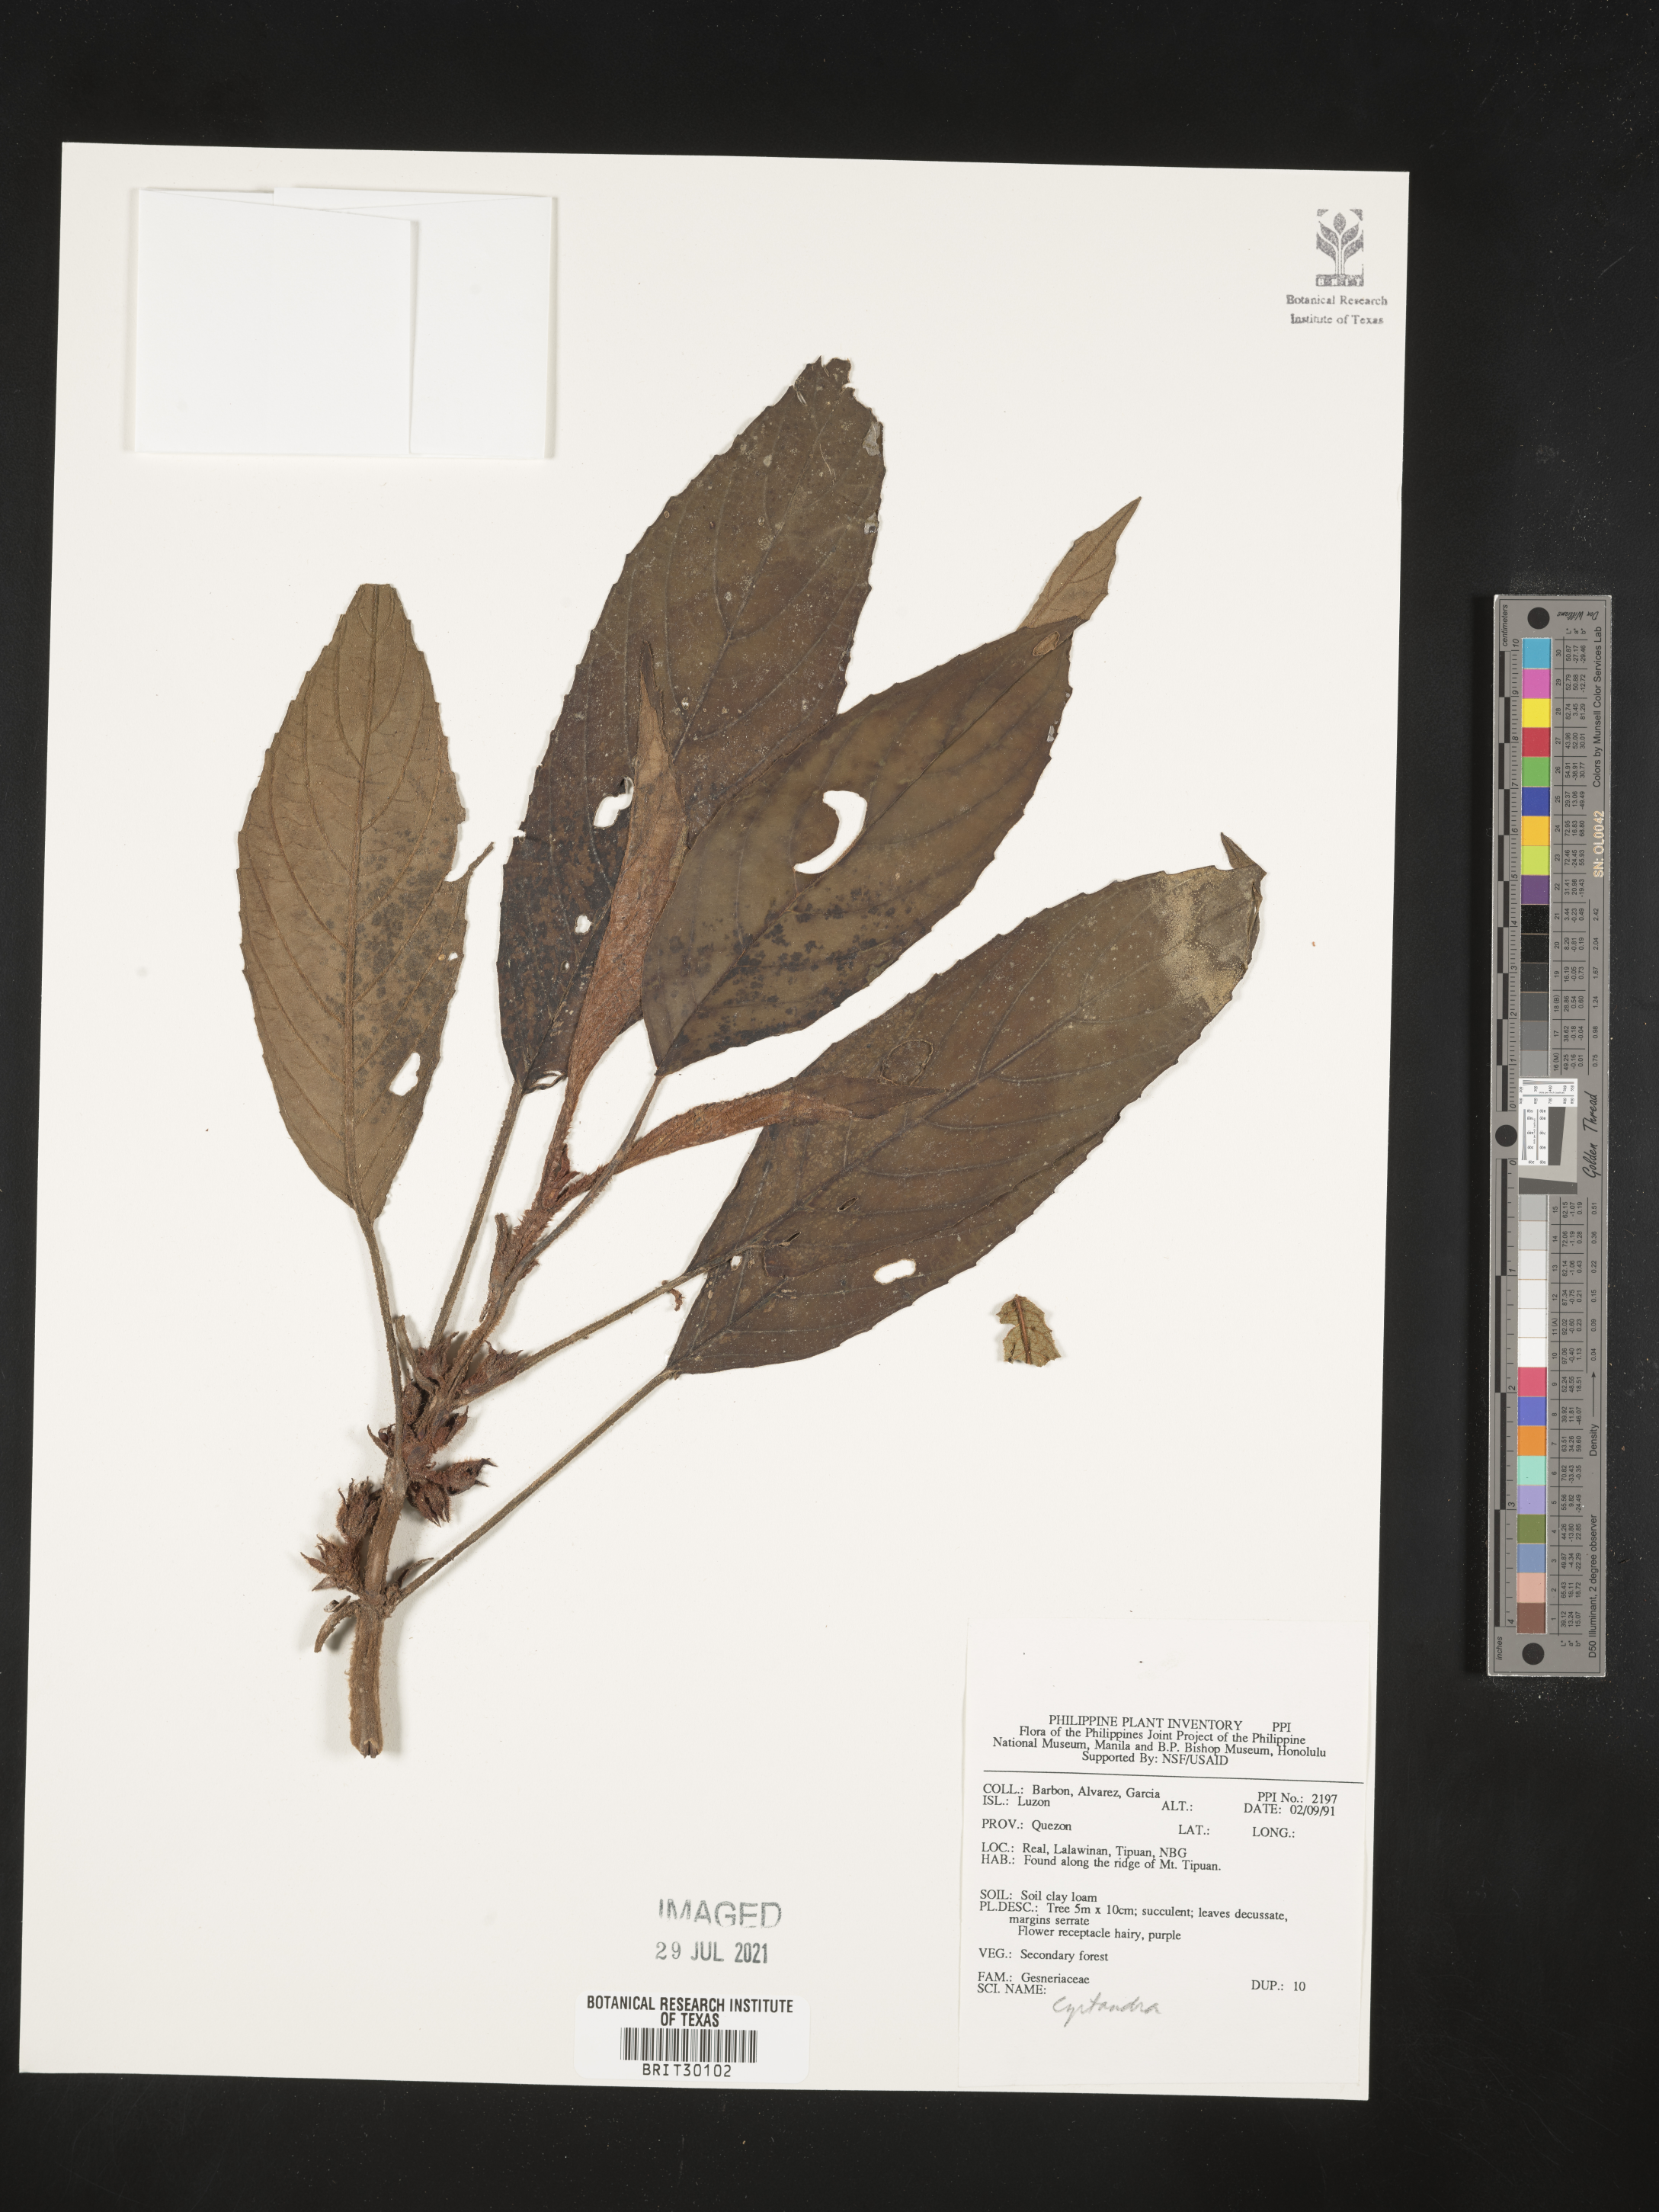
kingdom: Plantae
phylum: Tracheophyta
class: Magnoliopsida
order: Lamiales
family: Gesneriaceae
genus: Cyrtandra
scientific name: Cyrtandra
